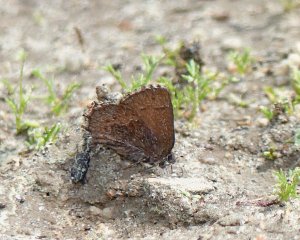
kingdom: Animalia
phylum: Arthropoda
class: Insecta
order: Lepidoptera
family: Lycaenidae
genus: Incisalia
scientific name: Incisalia eryphon
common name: Western Pine Elfin
